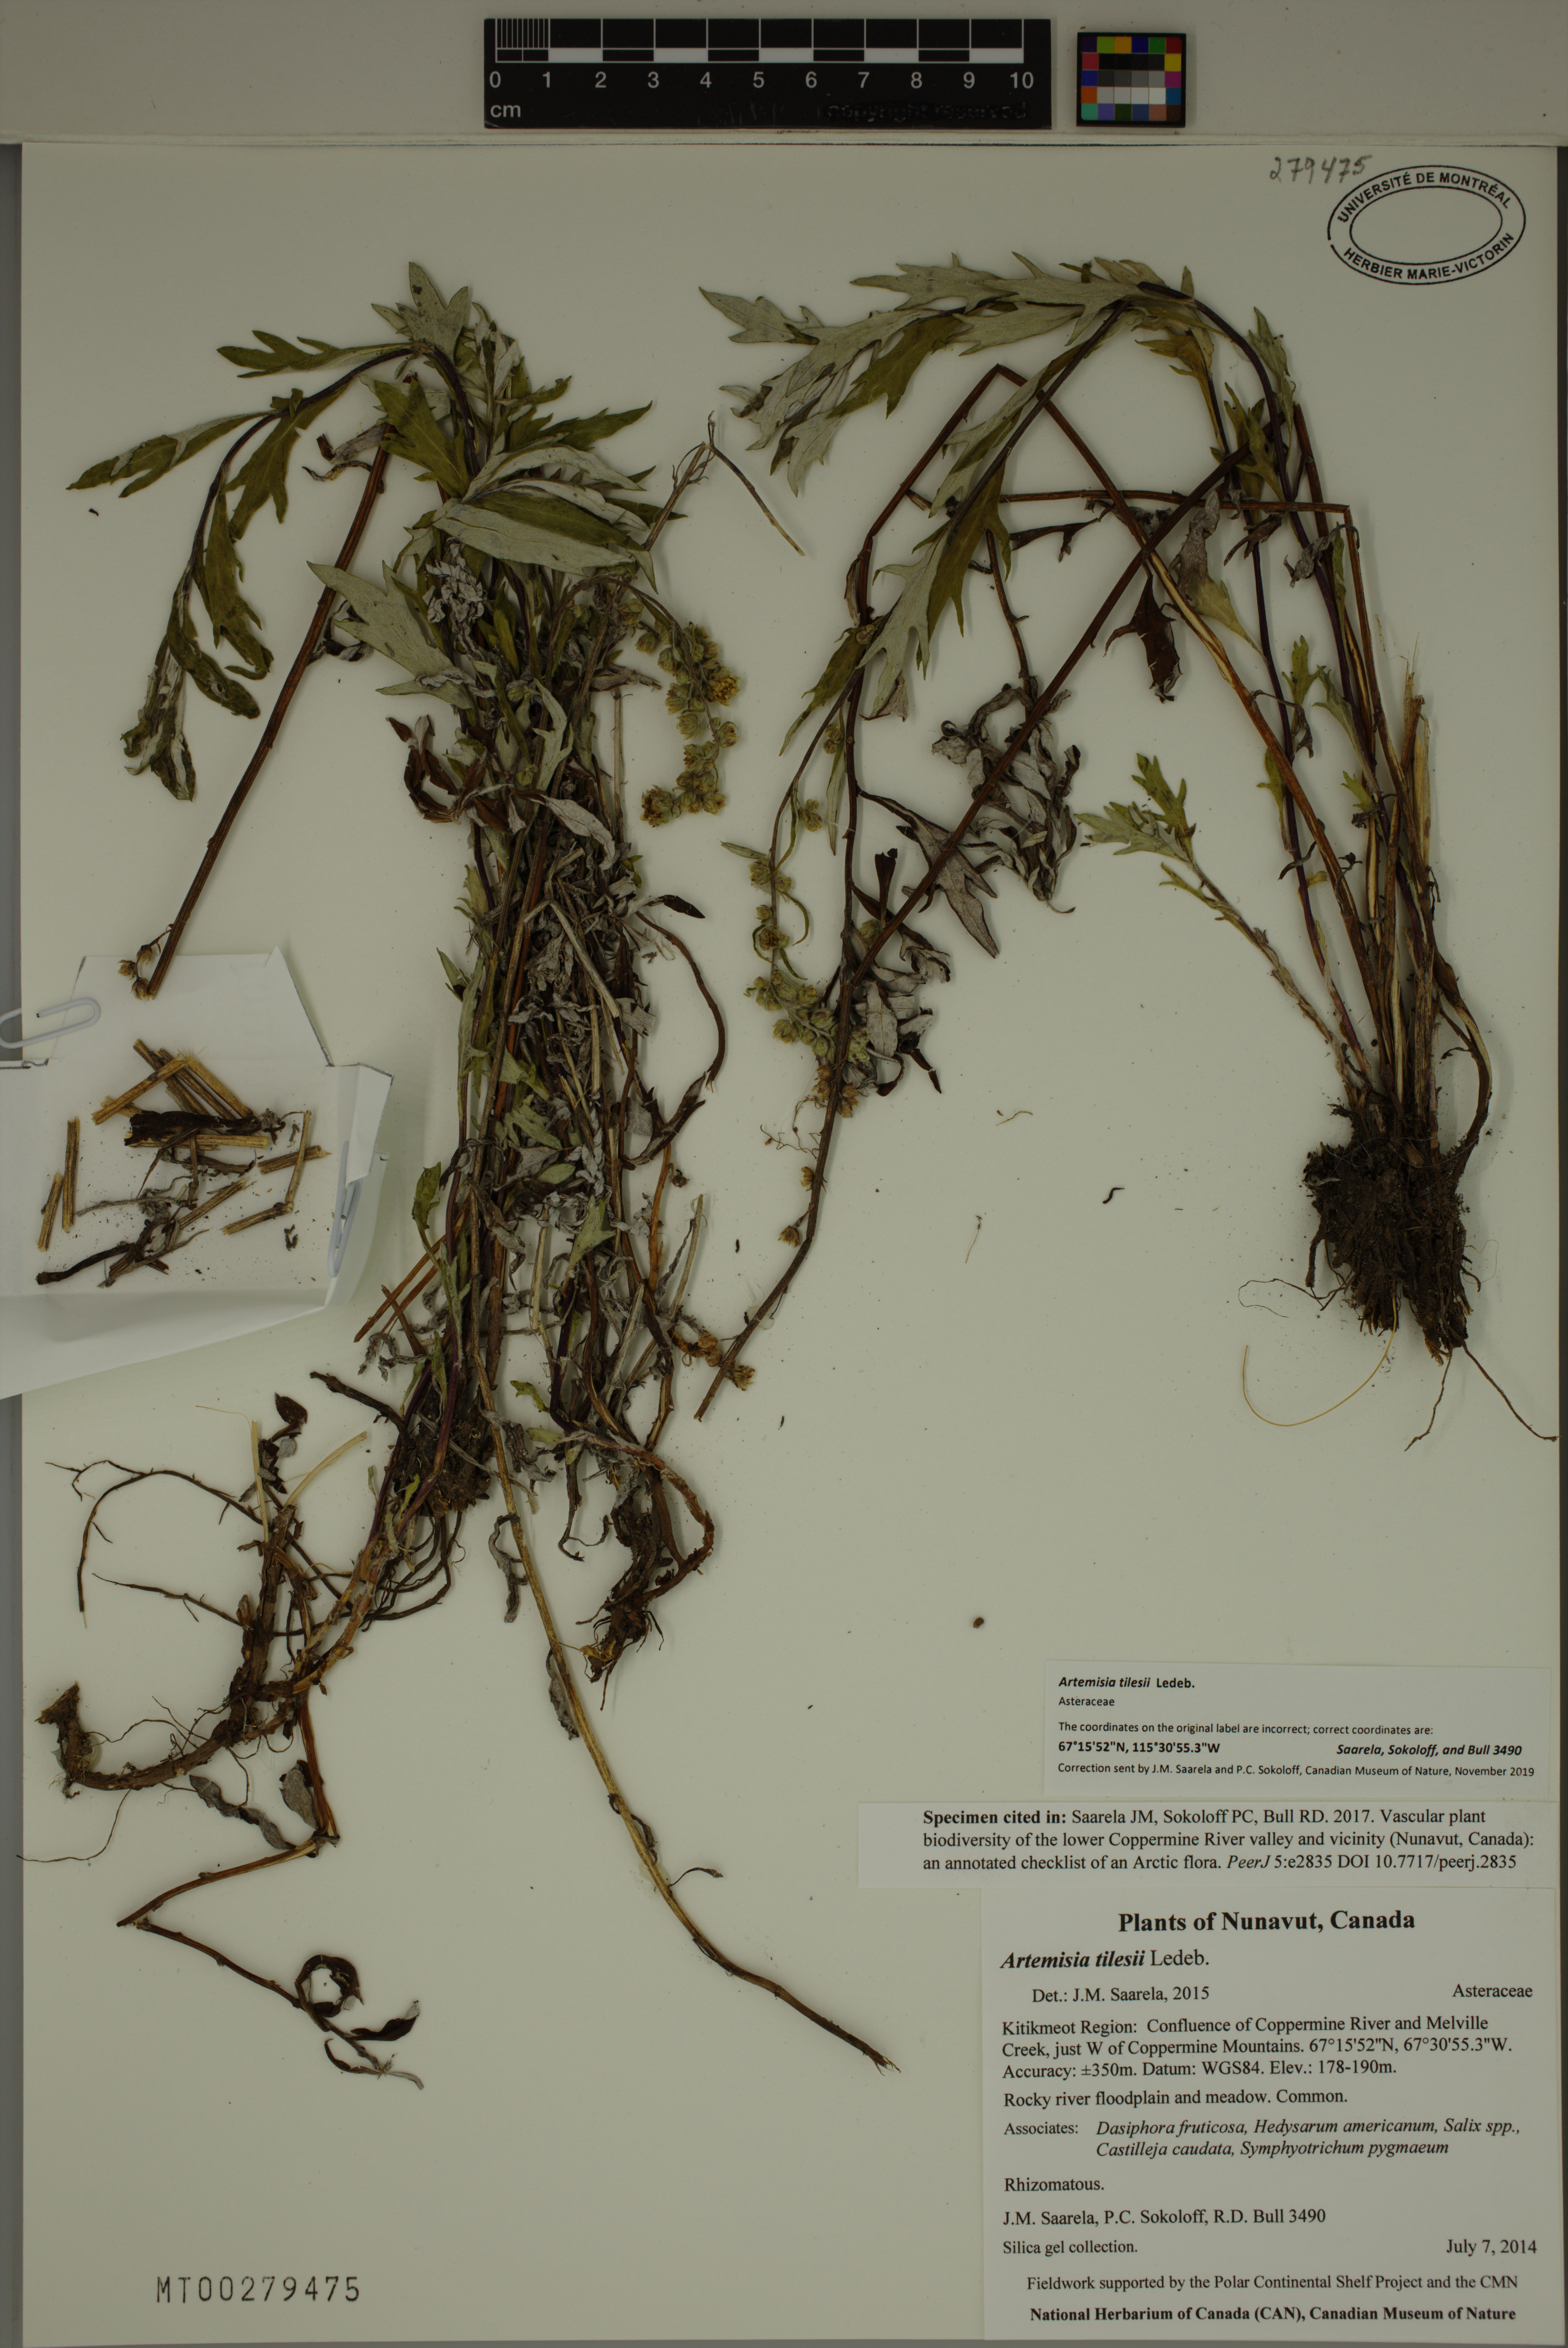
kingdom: Plantae
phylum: Tracheophyta
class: Magnoliopsida
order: Asterales
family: Asteraceae
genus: Artemisia
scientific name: Artemisia tilesii
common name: Aleutian mugwort
